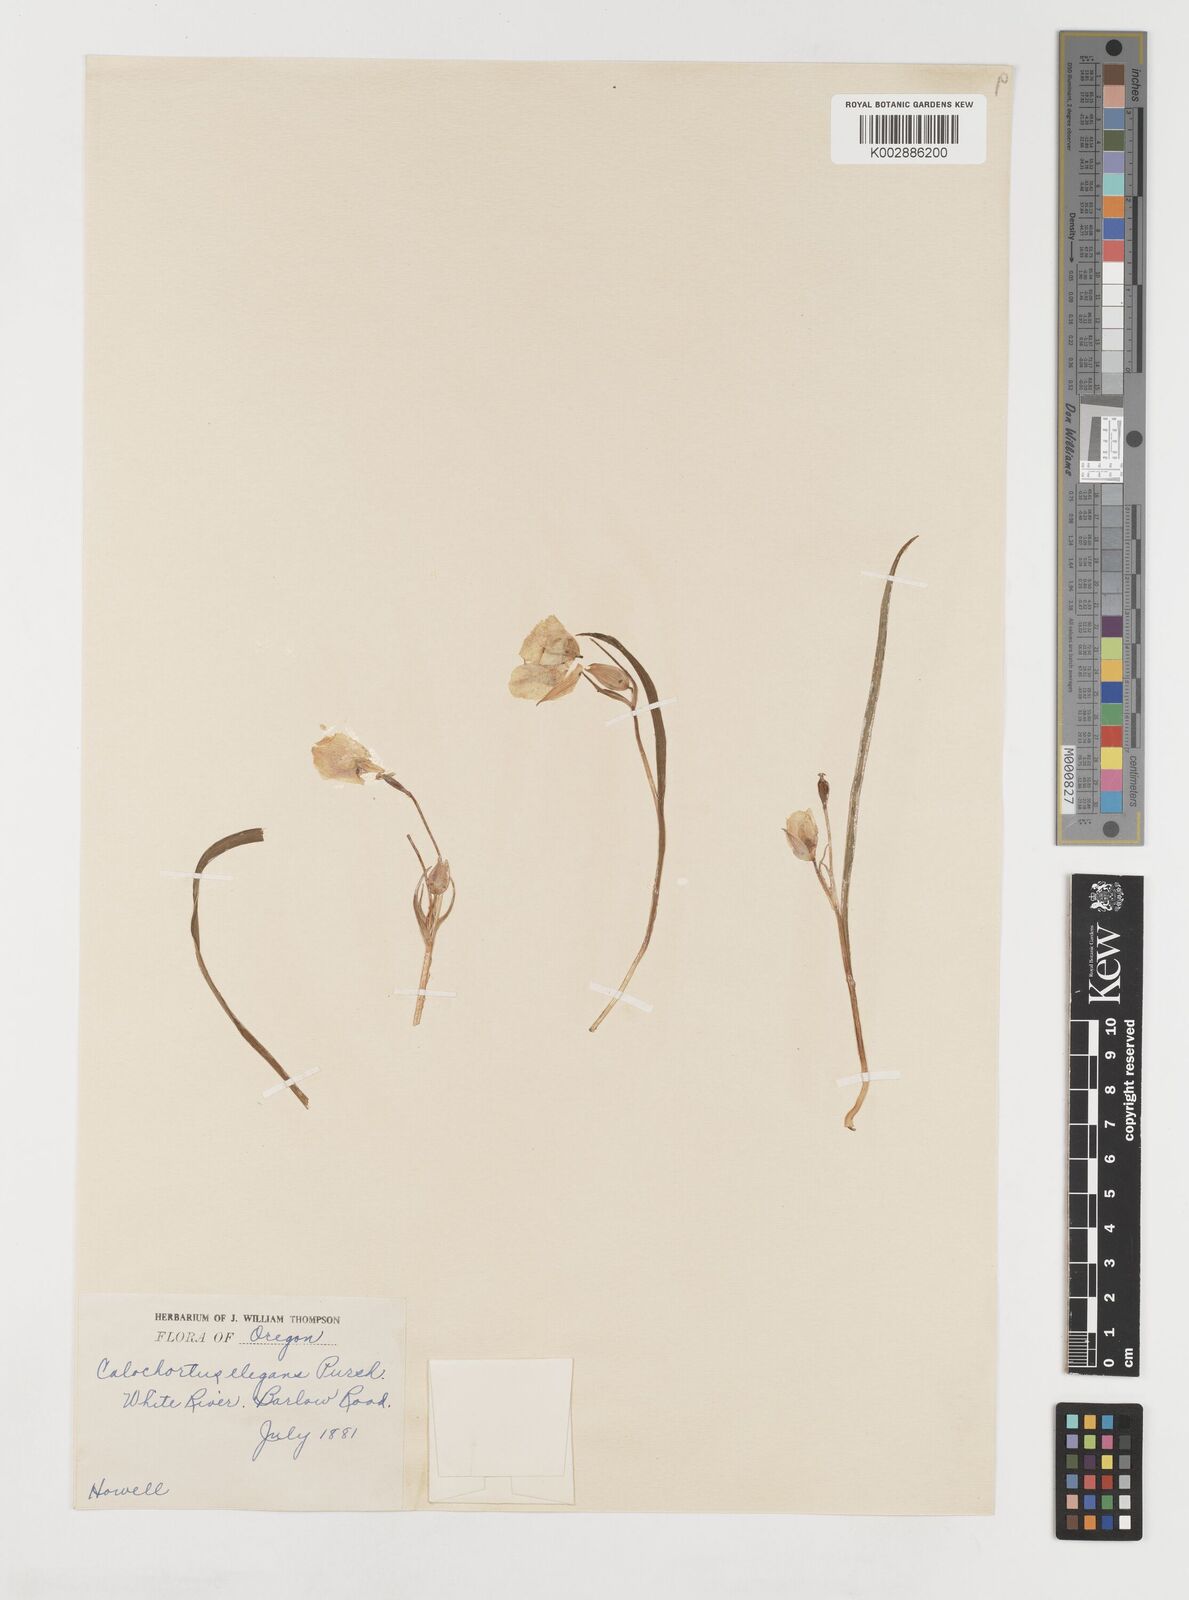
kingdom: Plantae
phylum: Tracheophyta
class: Liliopsida
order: Liliales
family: Liliaceae
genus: Calochortus
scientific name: Calochortus elegans
